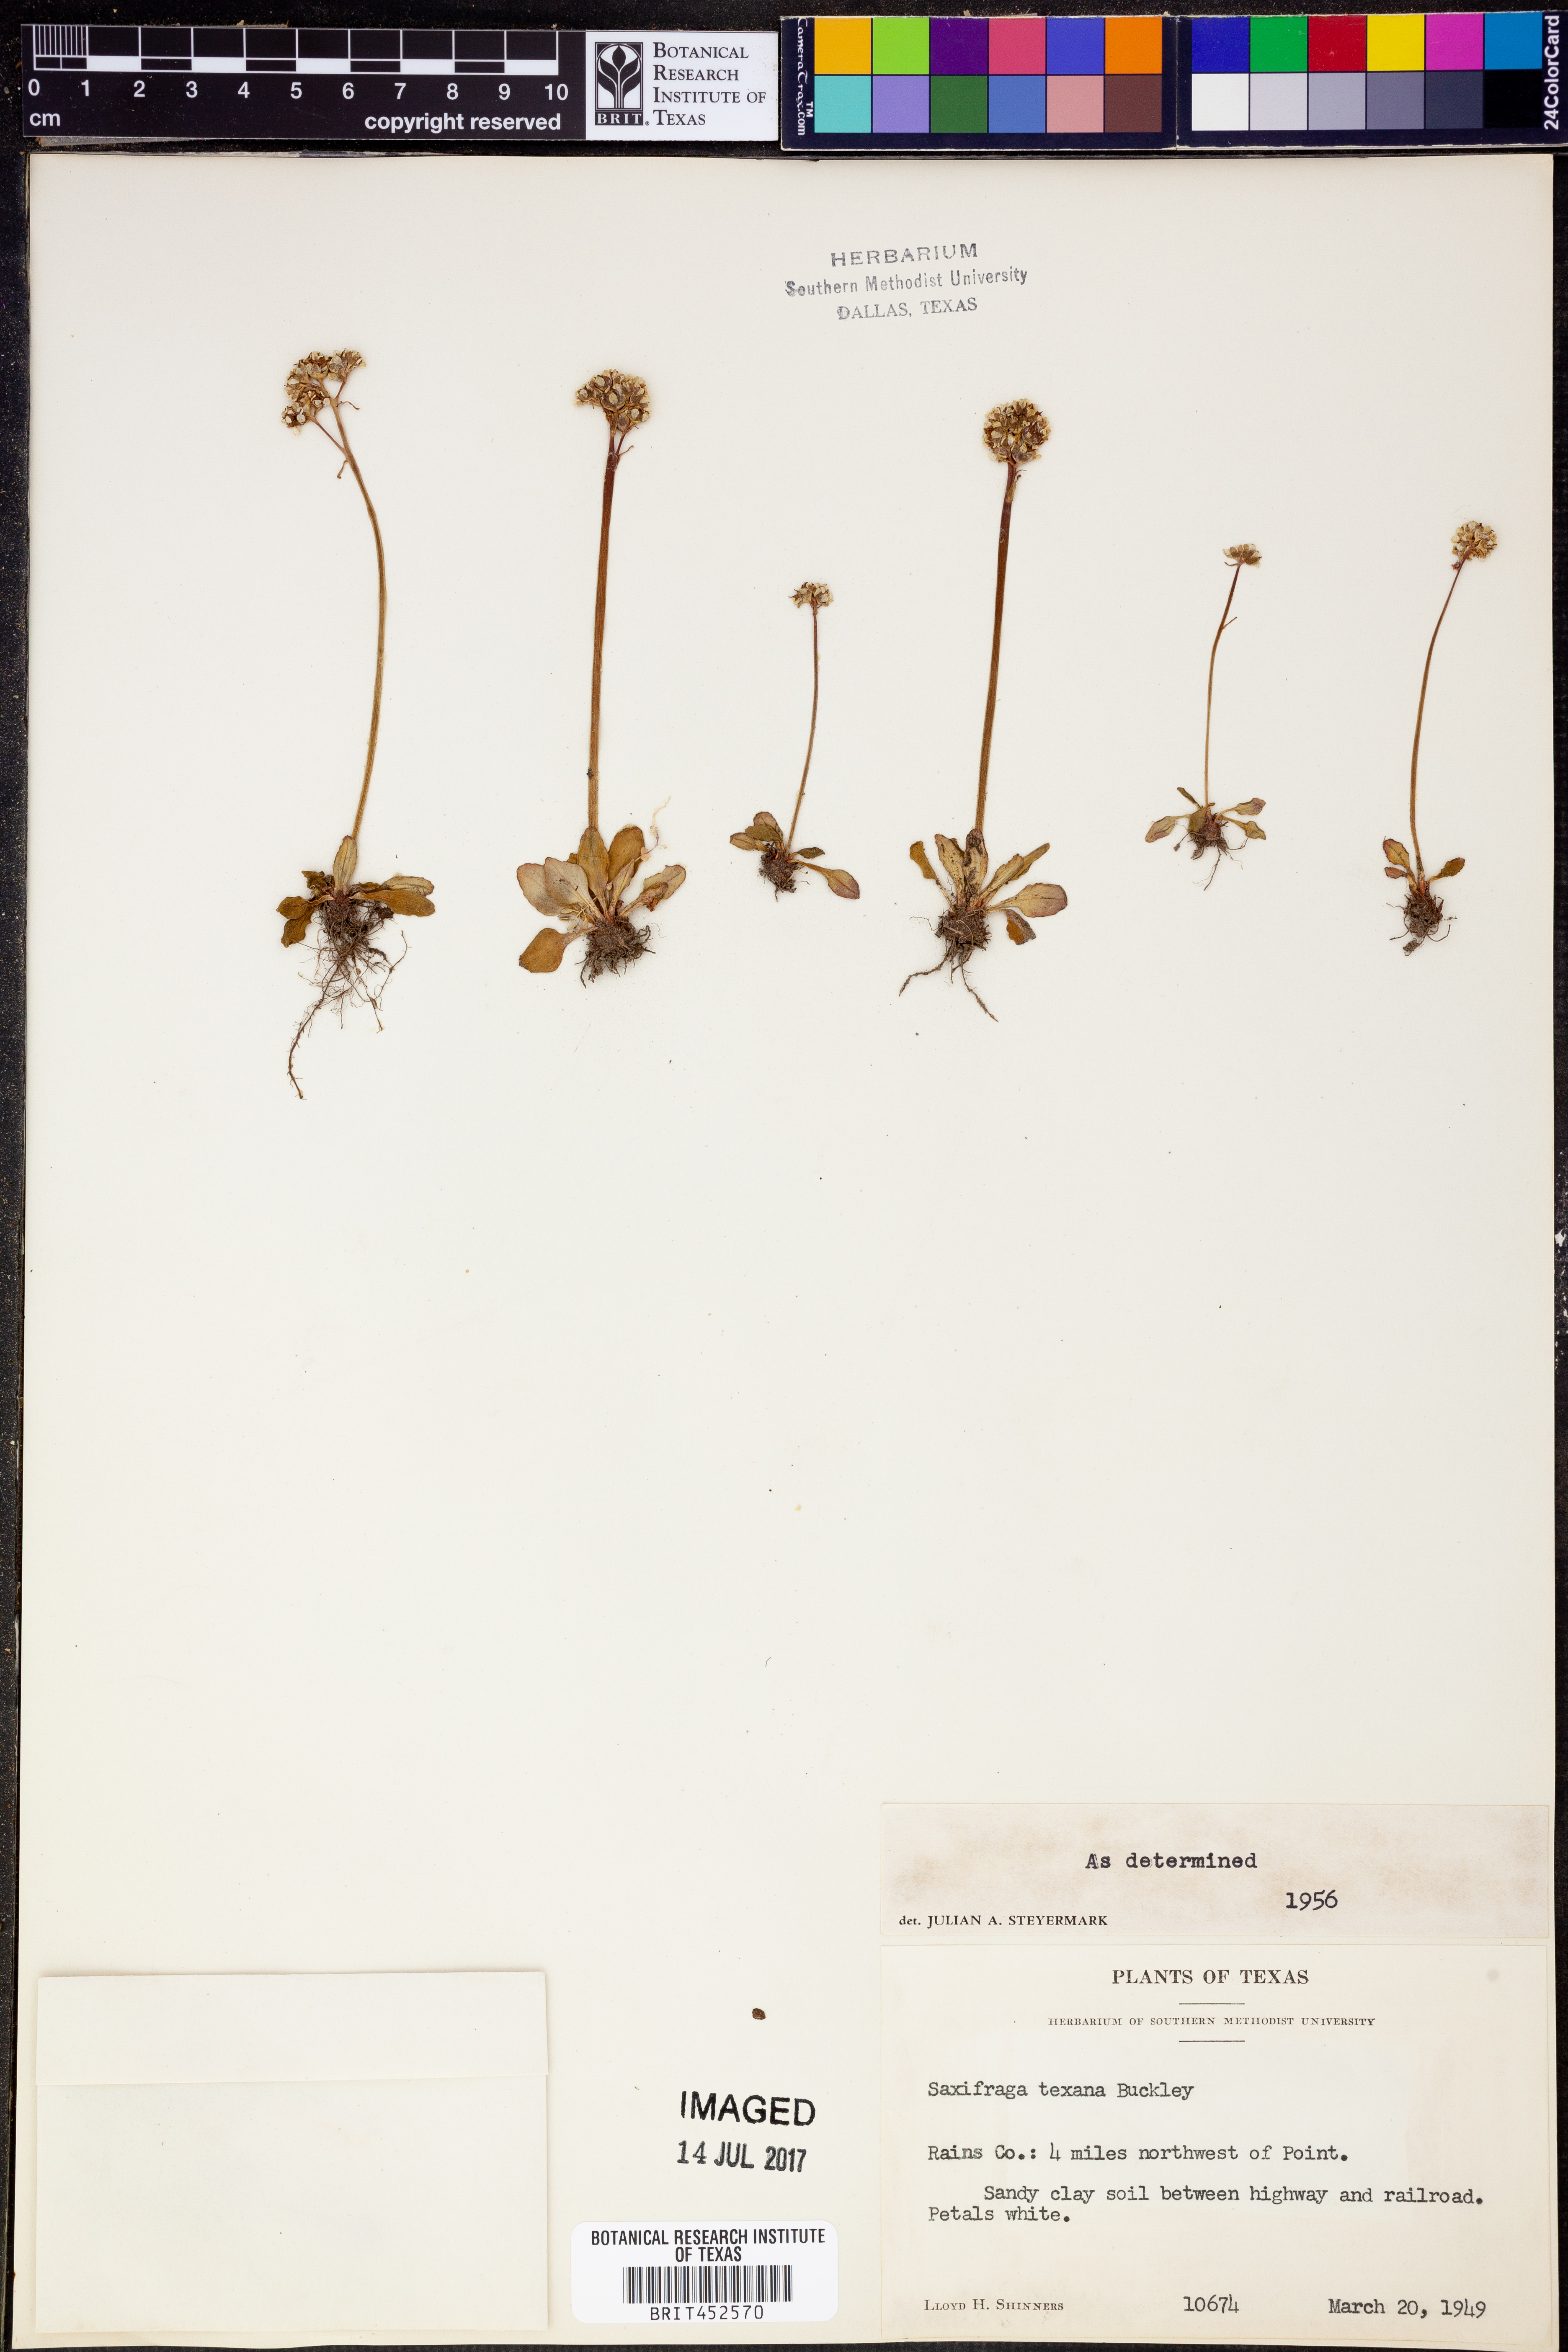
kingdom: Plantae
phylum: Tracheophyta
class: Magnoliopsida
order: Saxifragales
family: Saxifragaceae
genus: Micranthes
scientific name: Micranthes texana
